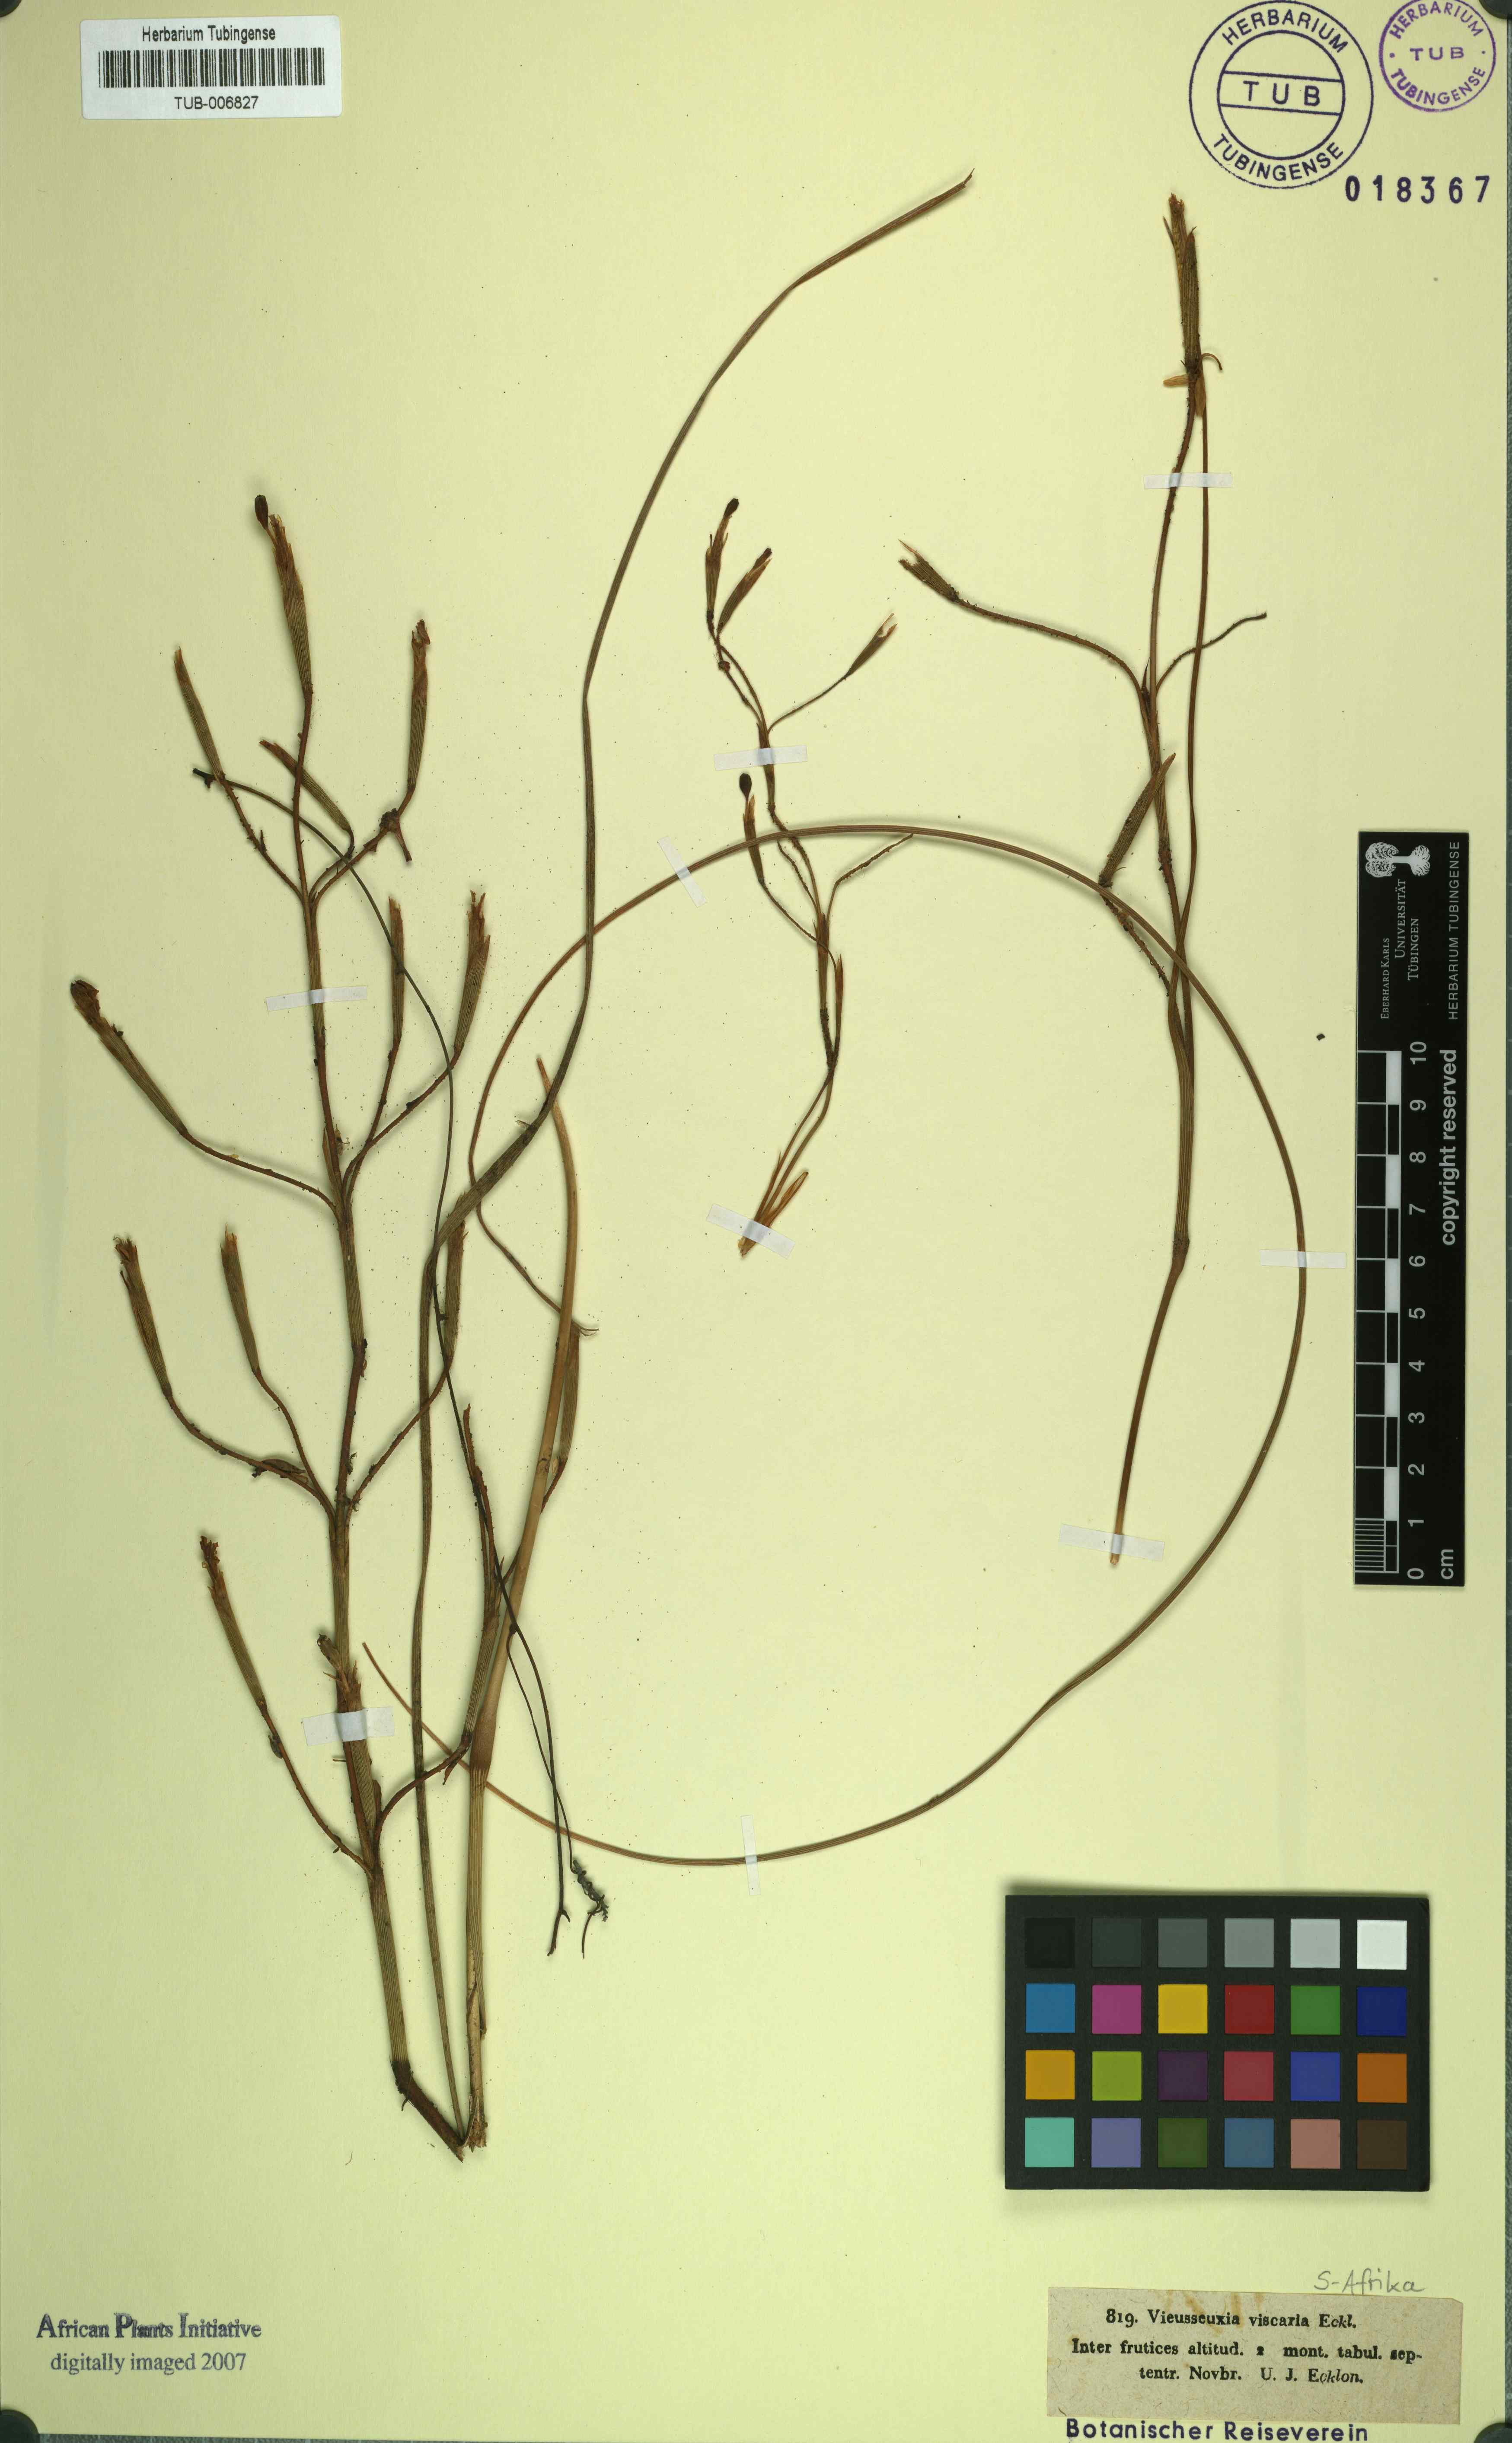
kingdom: Plantae
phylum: Tracheophyta
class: Liliopsida
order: Asparagales
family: Iridaceae
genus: Moraea
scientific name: Moraea viscaria
